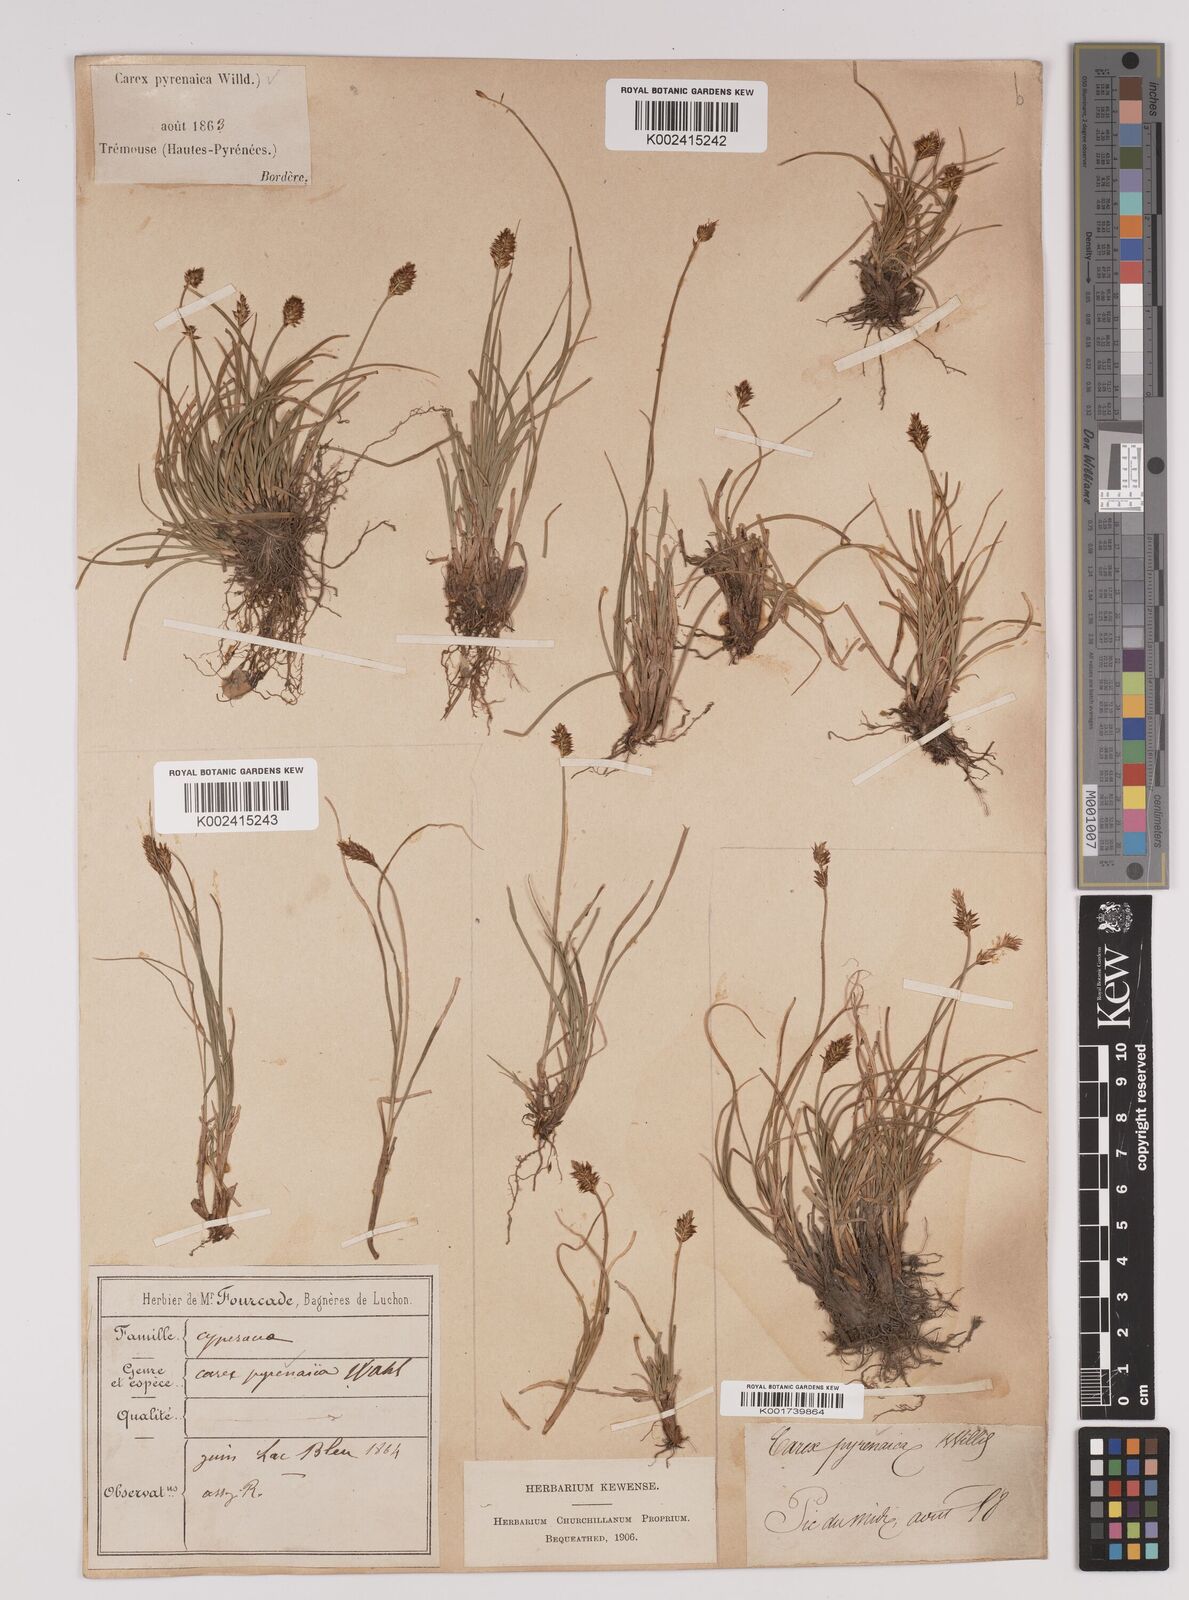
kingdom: Plantae
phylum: Tracheophyta
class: Liliopsida
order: Poales
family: Cyperaceae
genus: Carex
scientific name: Carex acicularis
